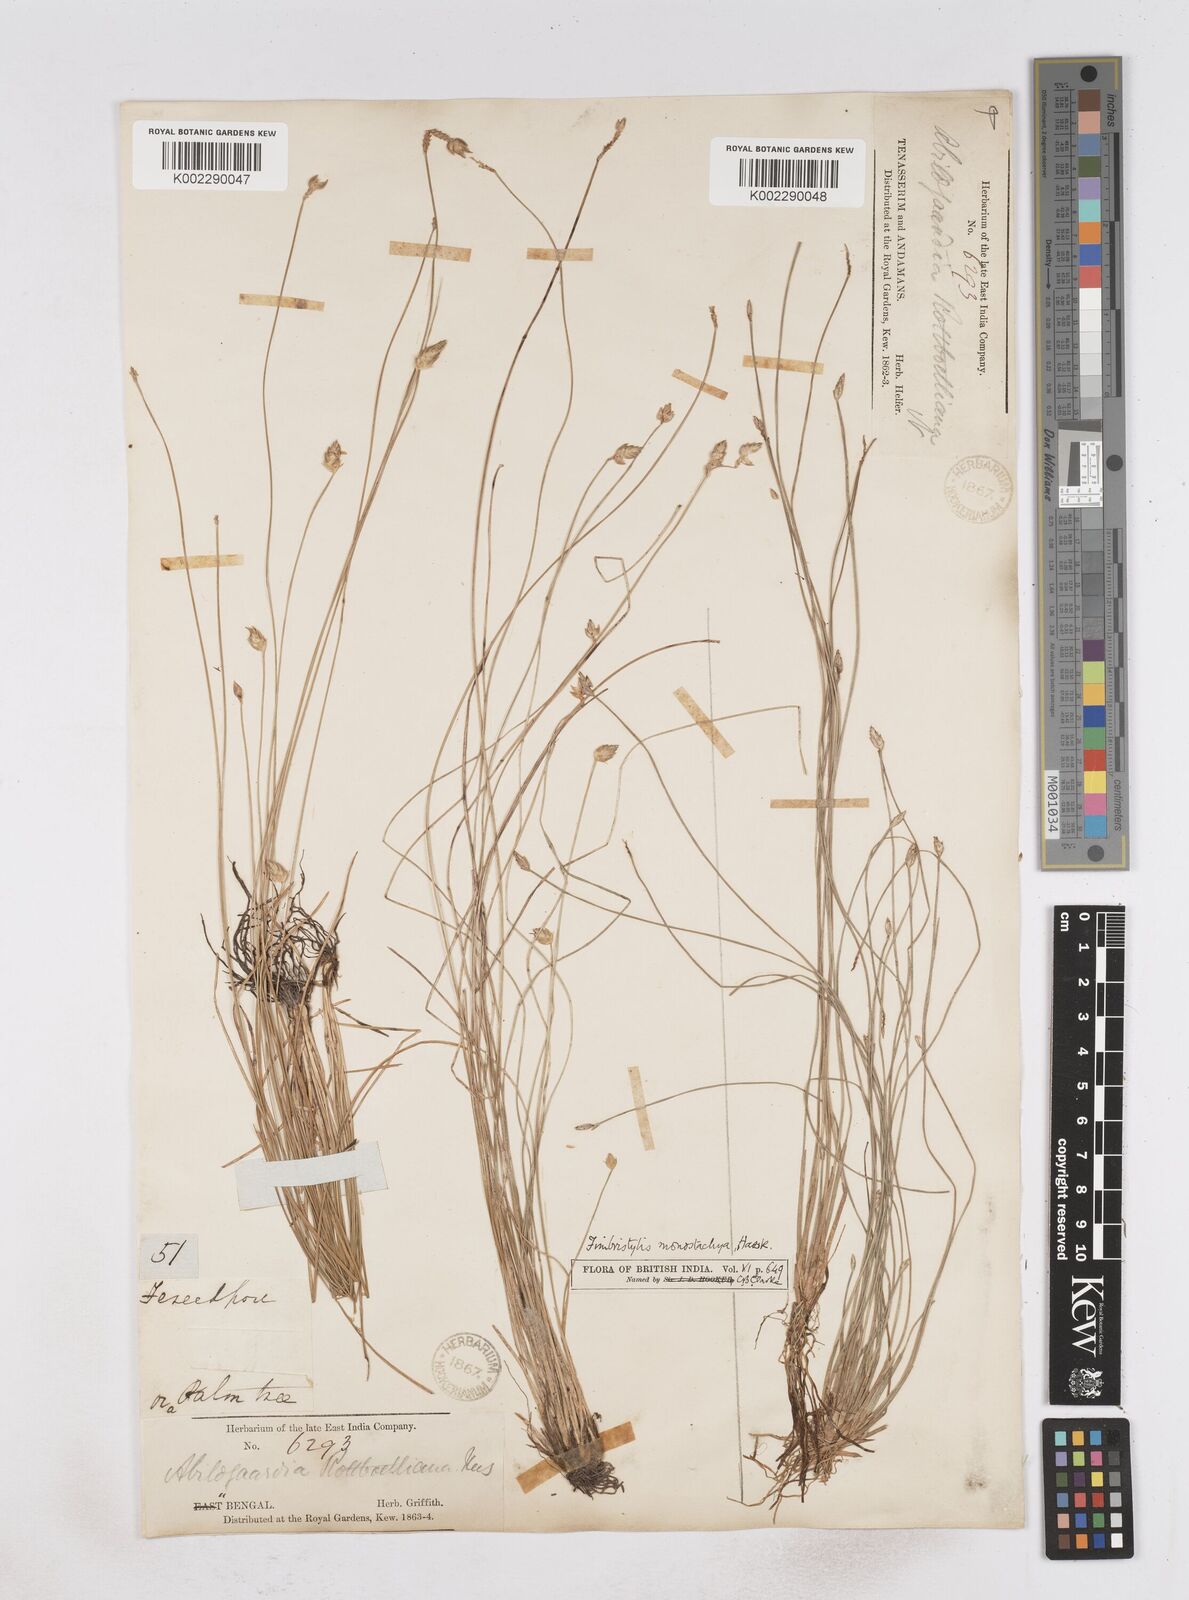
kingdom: Plantae
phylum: Tracheophyta
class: Liliopsida
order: Poales
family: Cyperaceae
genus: Abildgaardia
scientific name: Abildgaardia ovata
